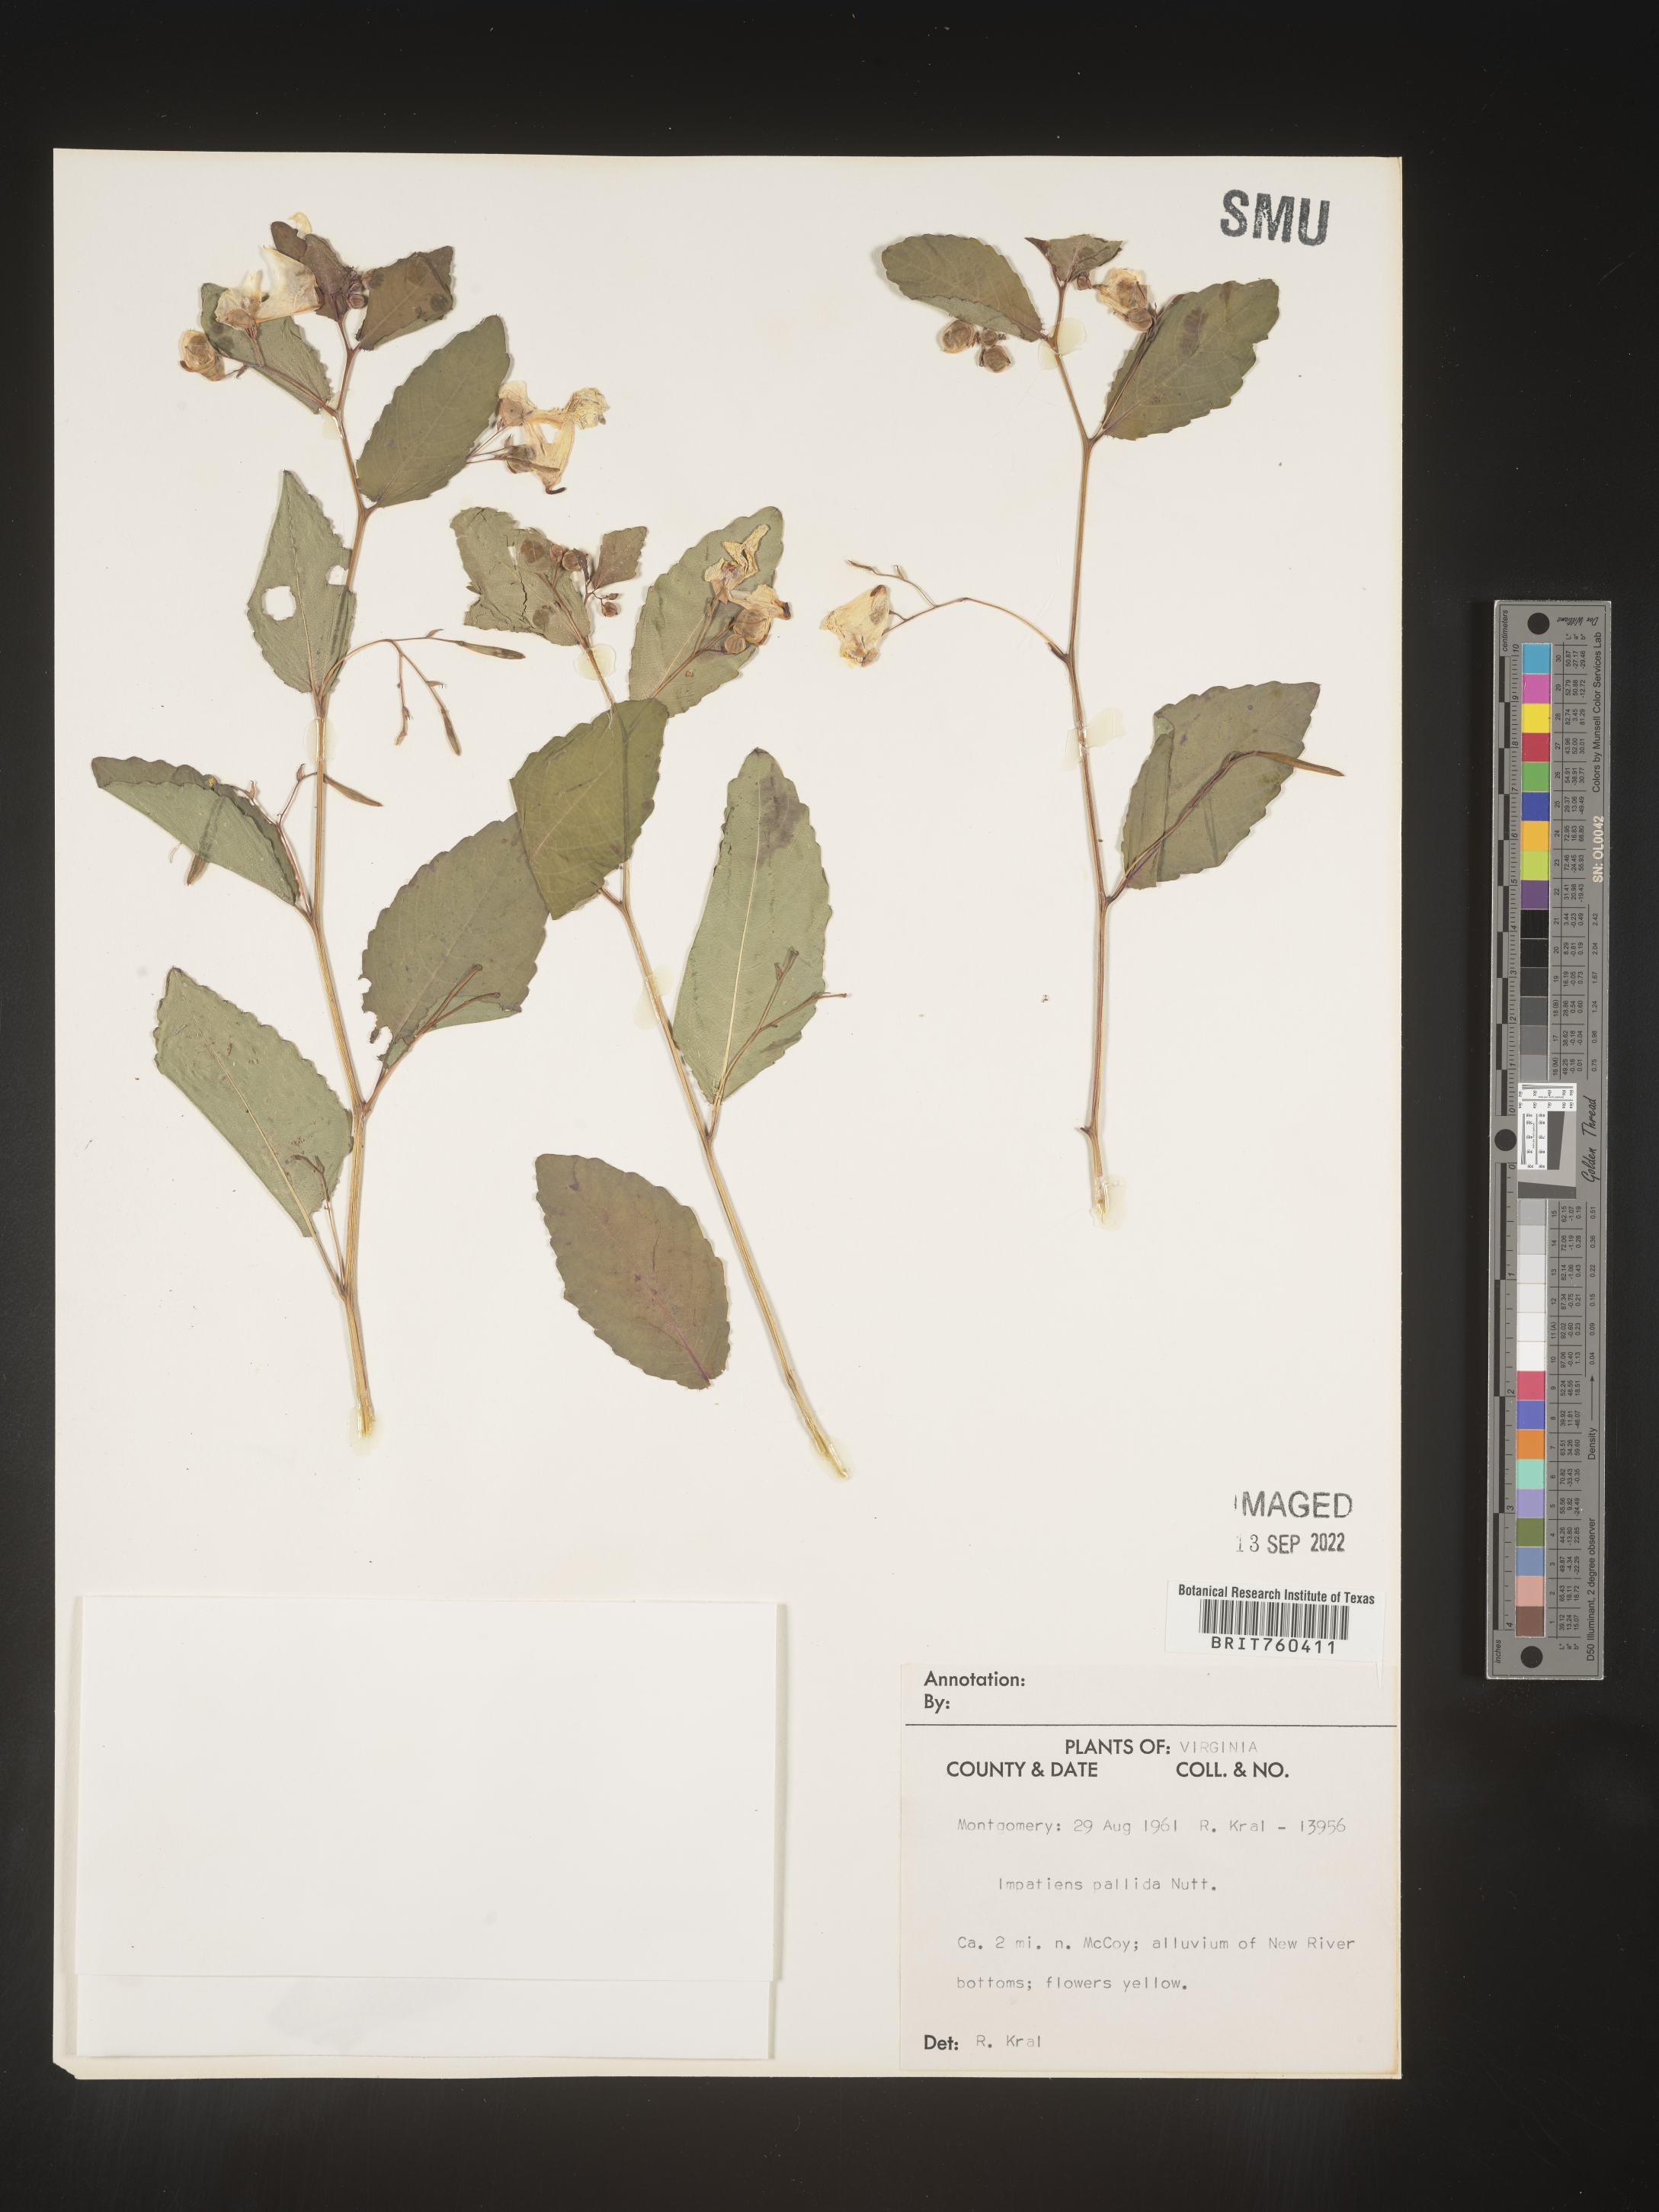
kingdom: Plantae
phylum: Tracheophyta
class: Magnoliopsida
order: Ericales
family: Balsaminaceae
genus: Impatiens
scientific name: Impatiens pallida
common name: Pale snapweed
